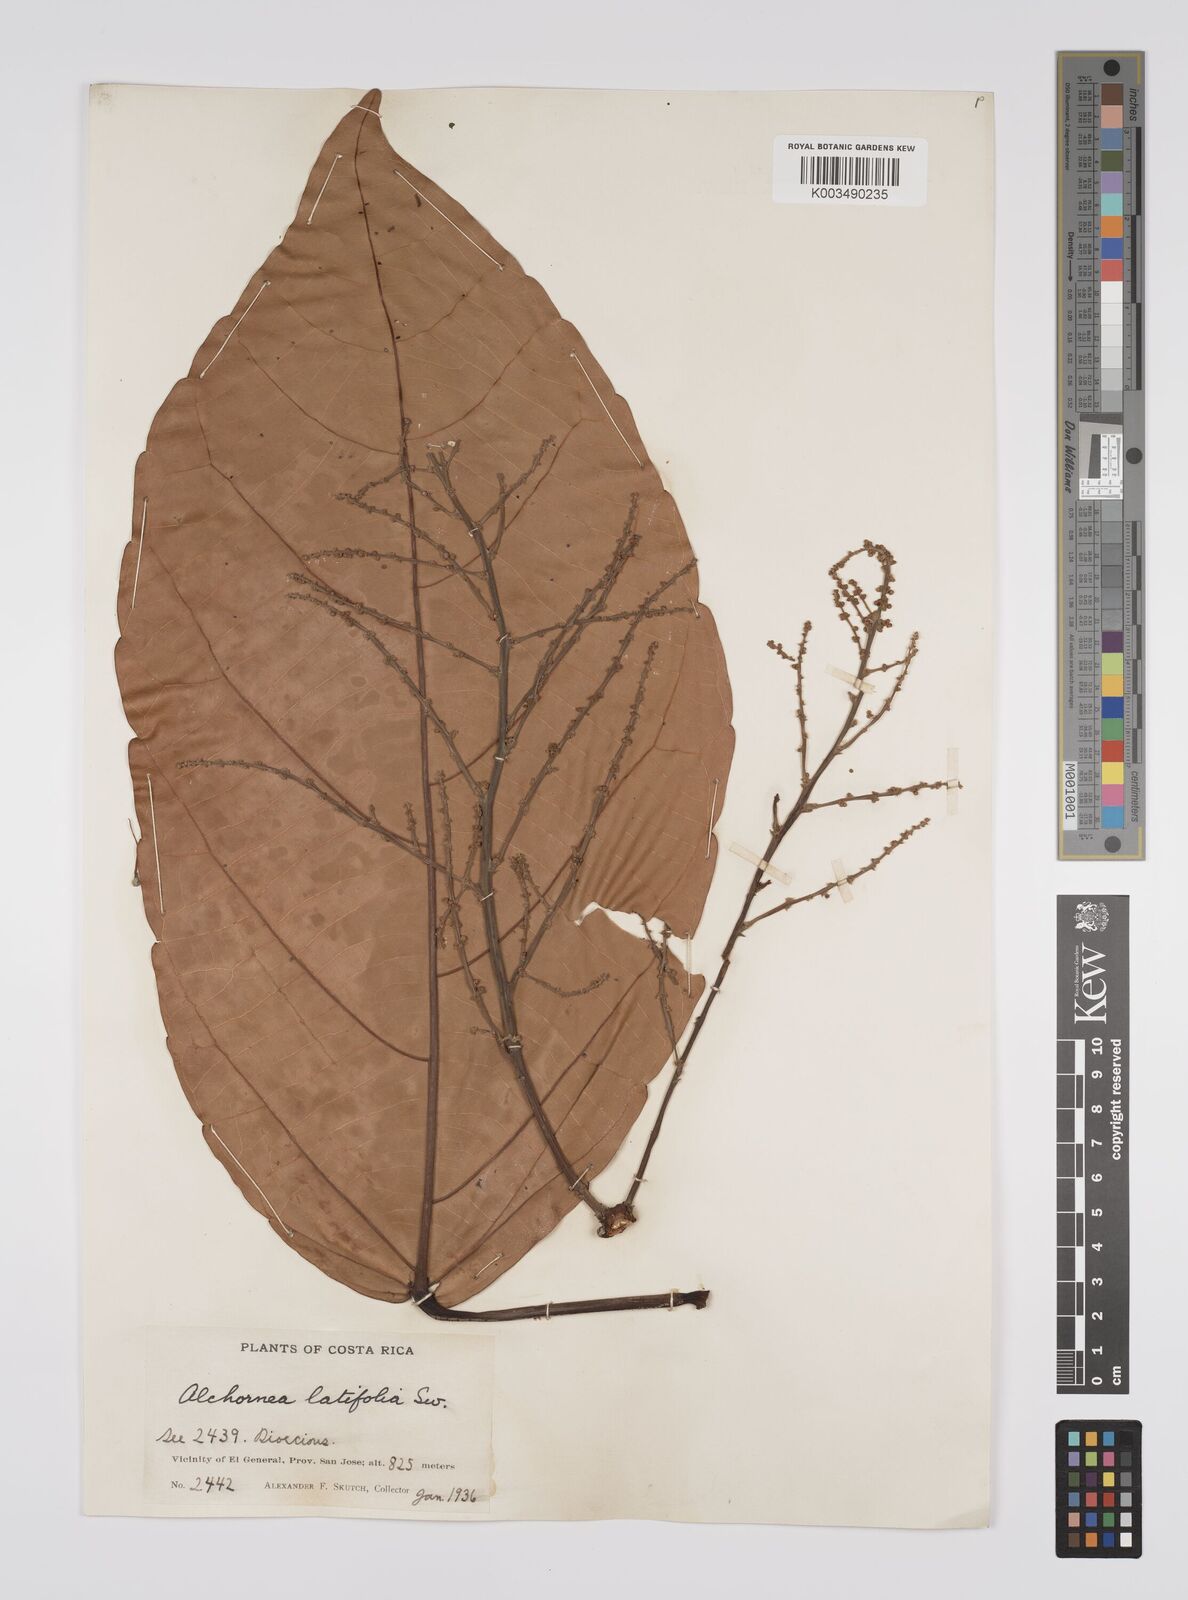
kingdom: Plantae
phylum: Tracheophyta
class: Magnoliopsida
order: Malpighiales
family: Euphorbiaceae
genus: Alchornea
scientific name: Alchornea latifolia
